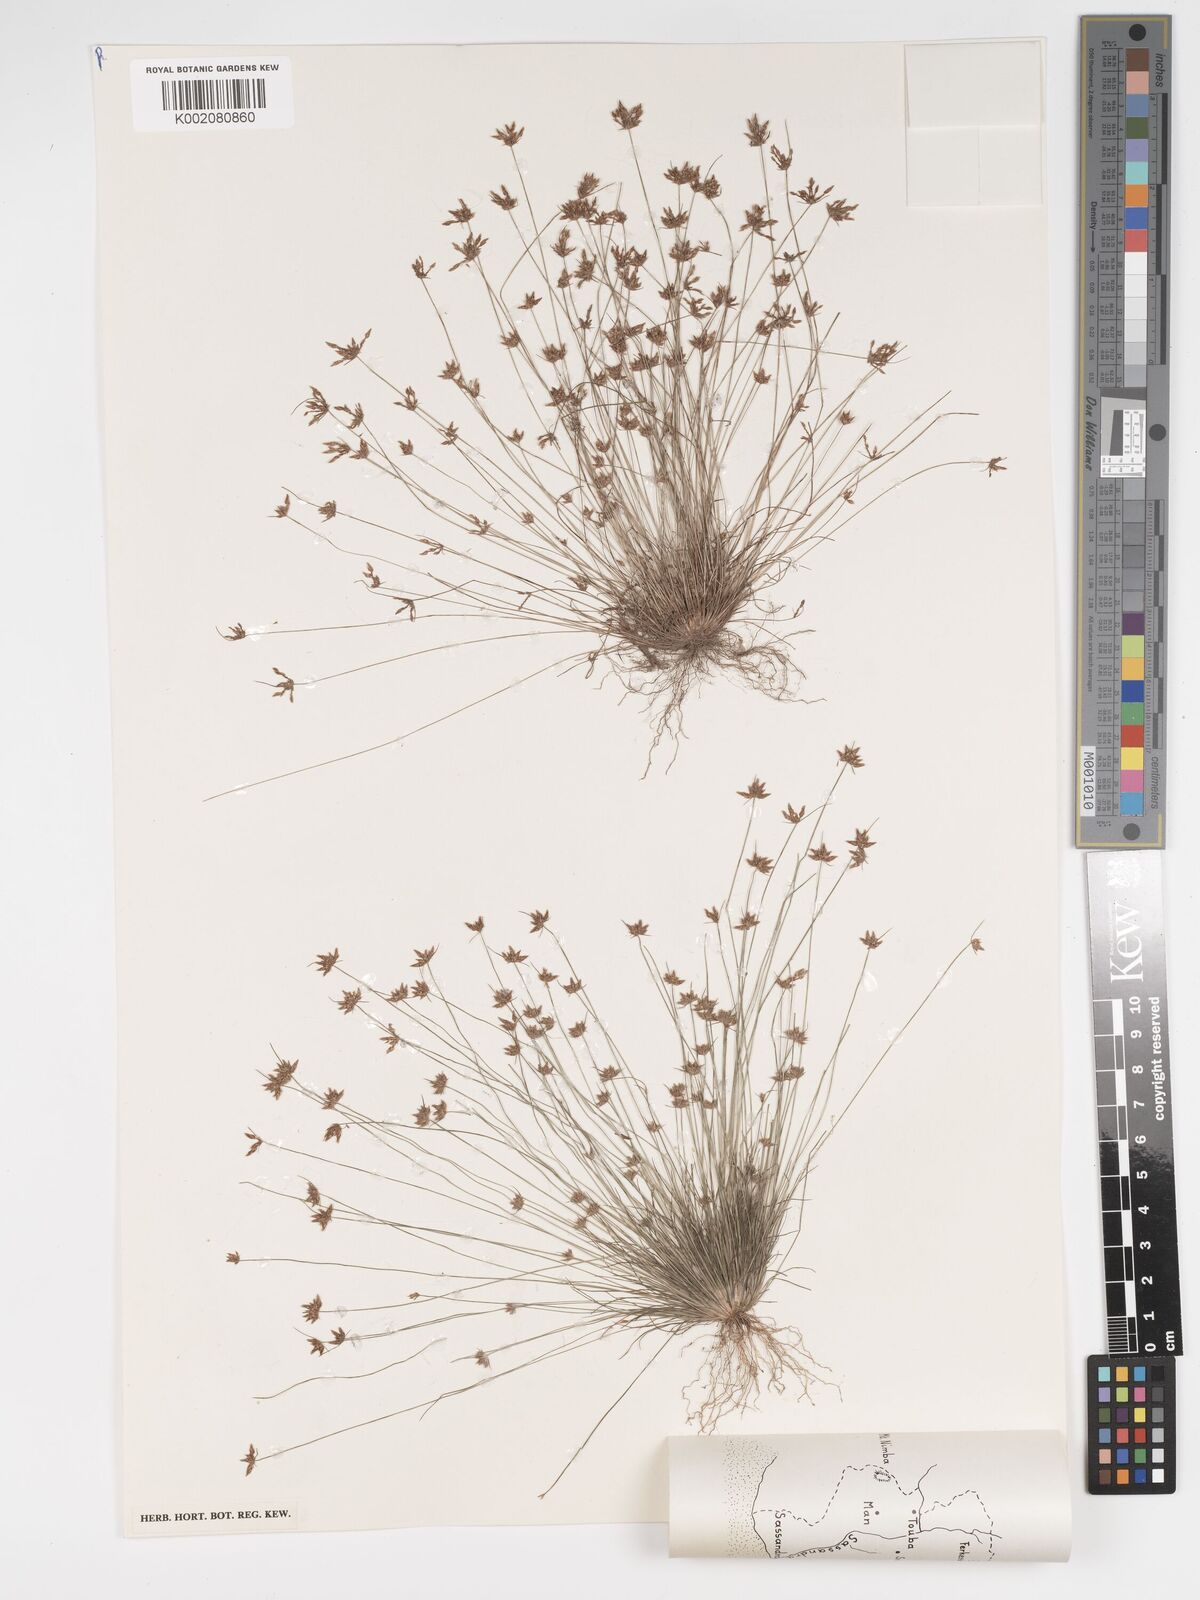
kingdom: Plantae
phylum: Tracheophyta
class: Liliopsida
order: Poales
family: Cyperaceae
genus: Bulbostylis
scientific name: Bulbostylis barbata
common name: Watergrass
